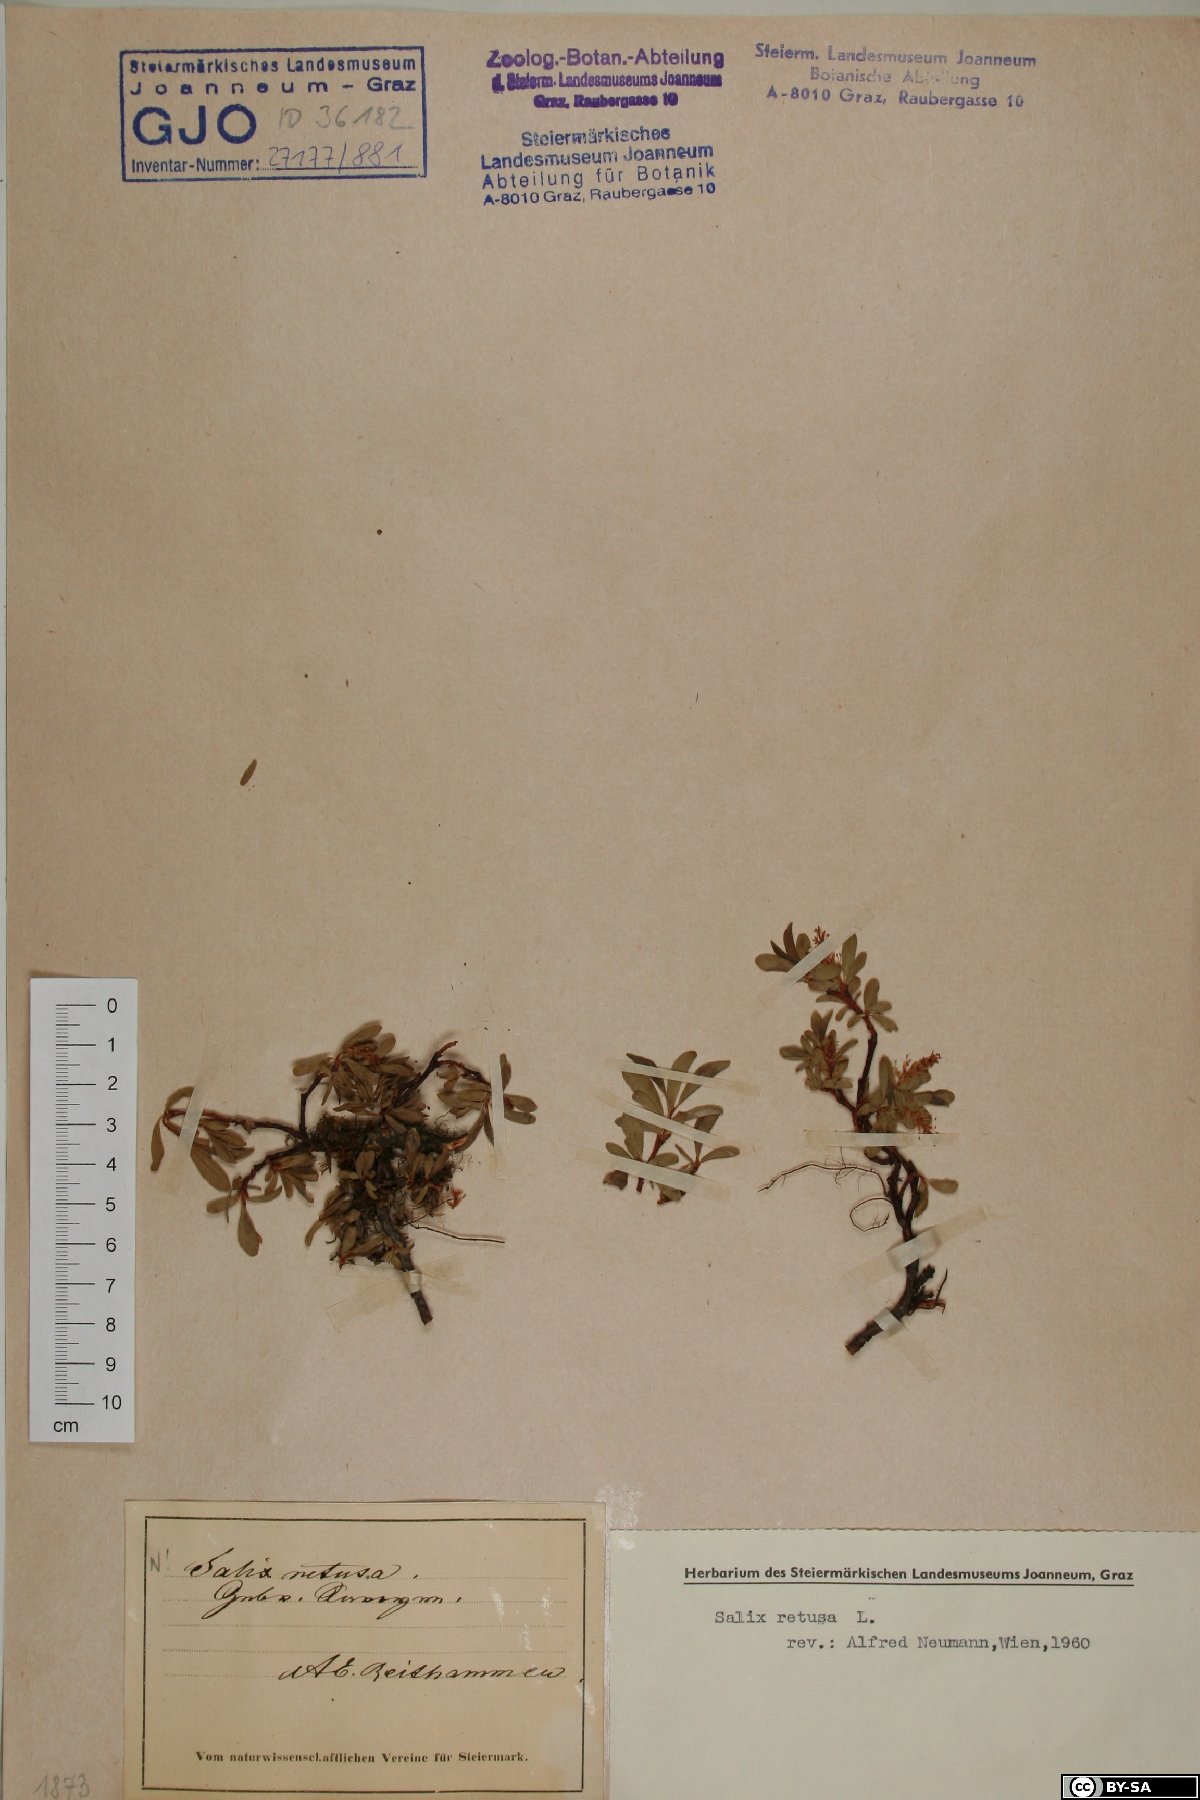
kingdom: Plantae
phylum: Tracheophyta
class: Magnoliopsida
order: Malpighiales
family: Salicaceae
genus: Salix
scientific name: Salix retusa
